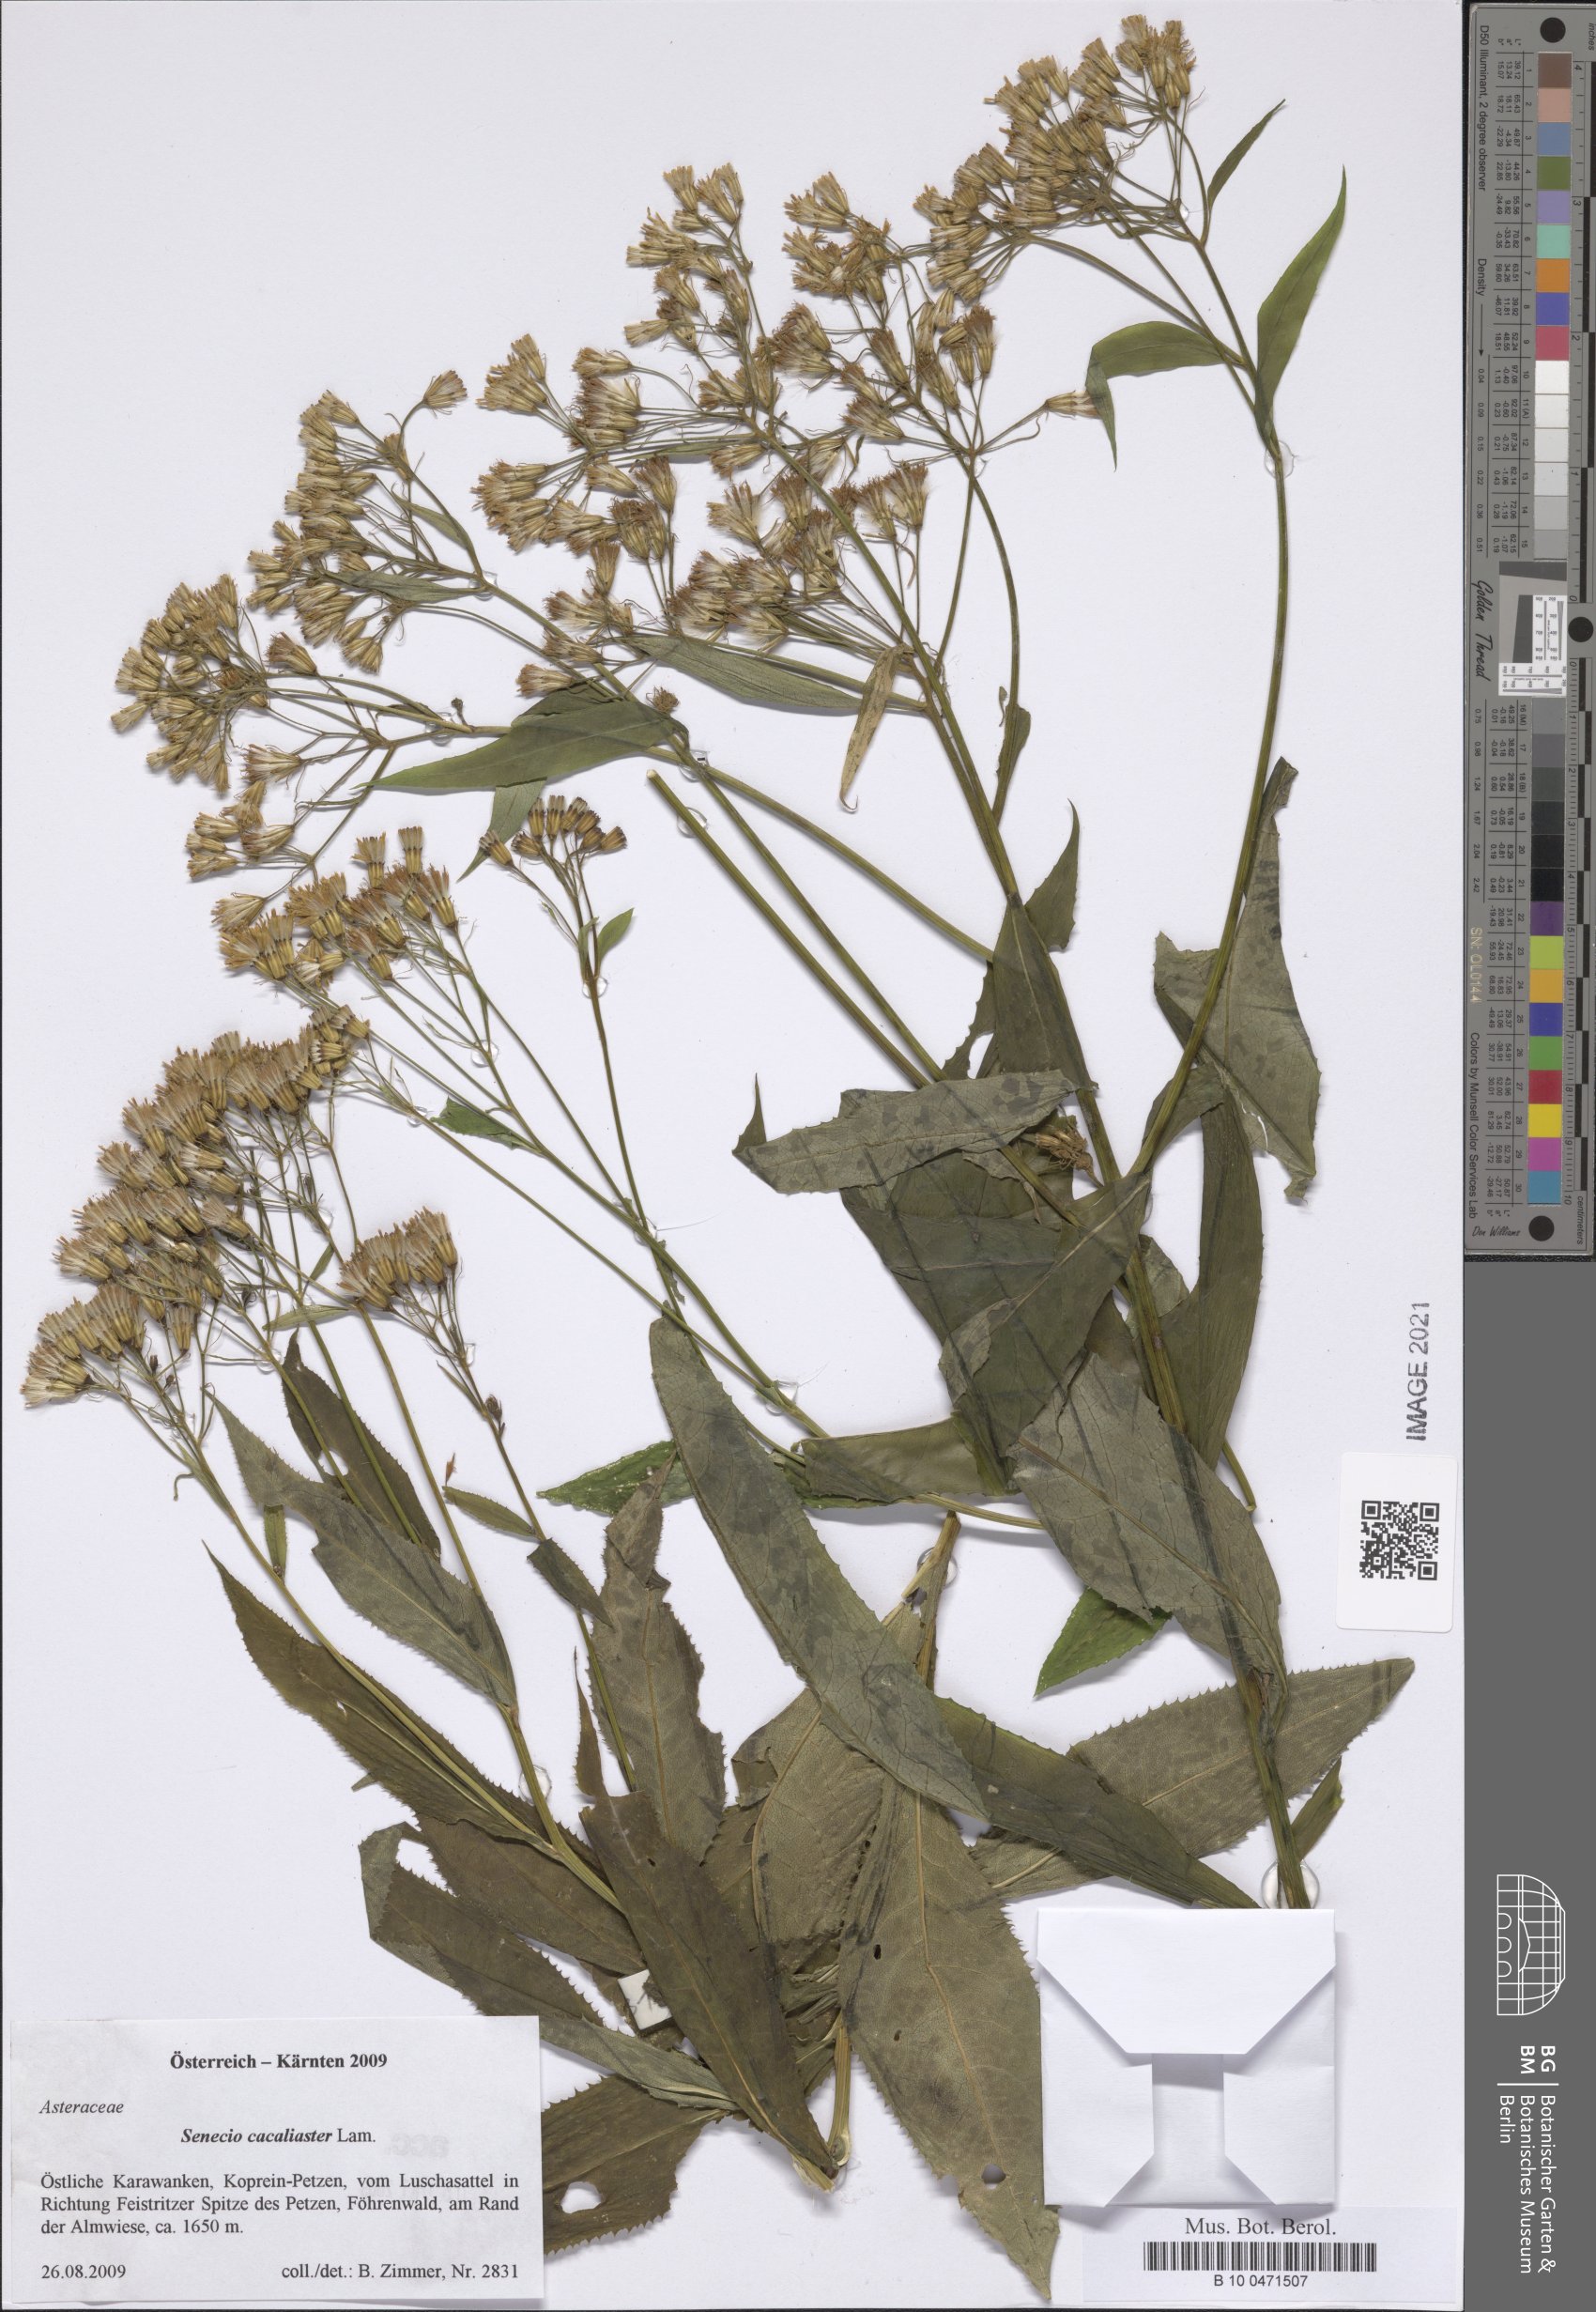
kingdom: Plantae
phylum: Tracheophyta
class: Magnoliopsida
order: Asterales
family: Asteraceae
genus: Senecio
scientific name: Senecio cacaliaster
